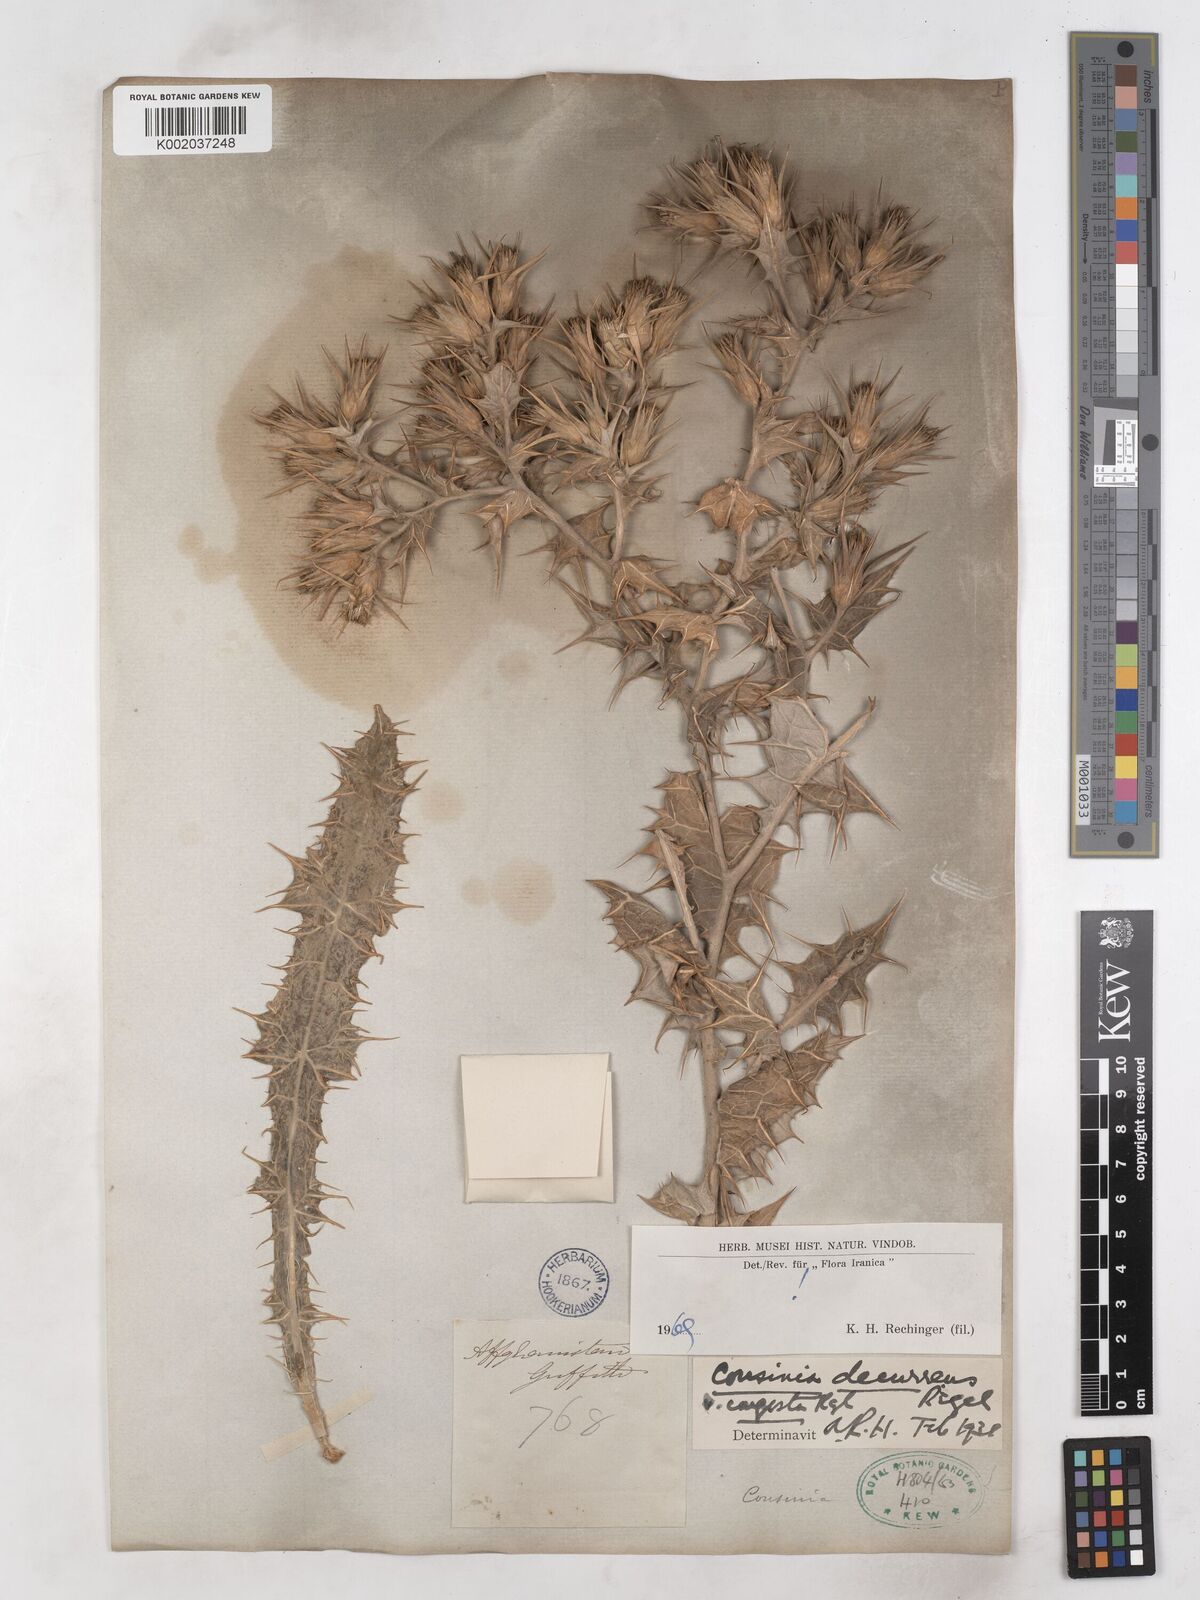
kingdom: Plantae
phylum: Tracheophyta
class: Magnoliopsida
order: Asterales
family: Asteraceae
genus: Cousinia
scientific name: Cousinia decurrens
